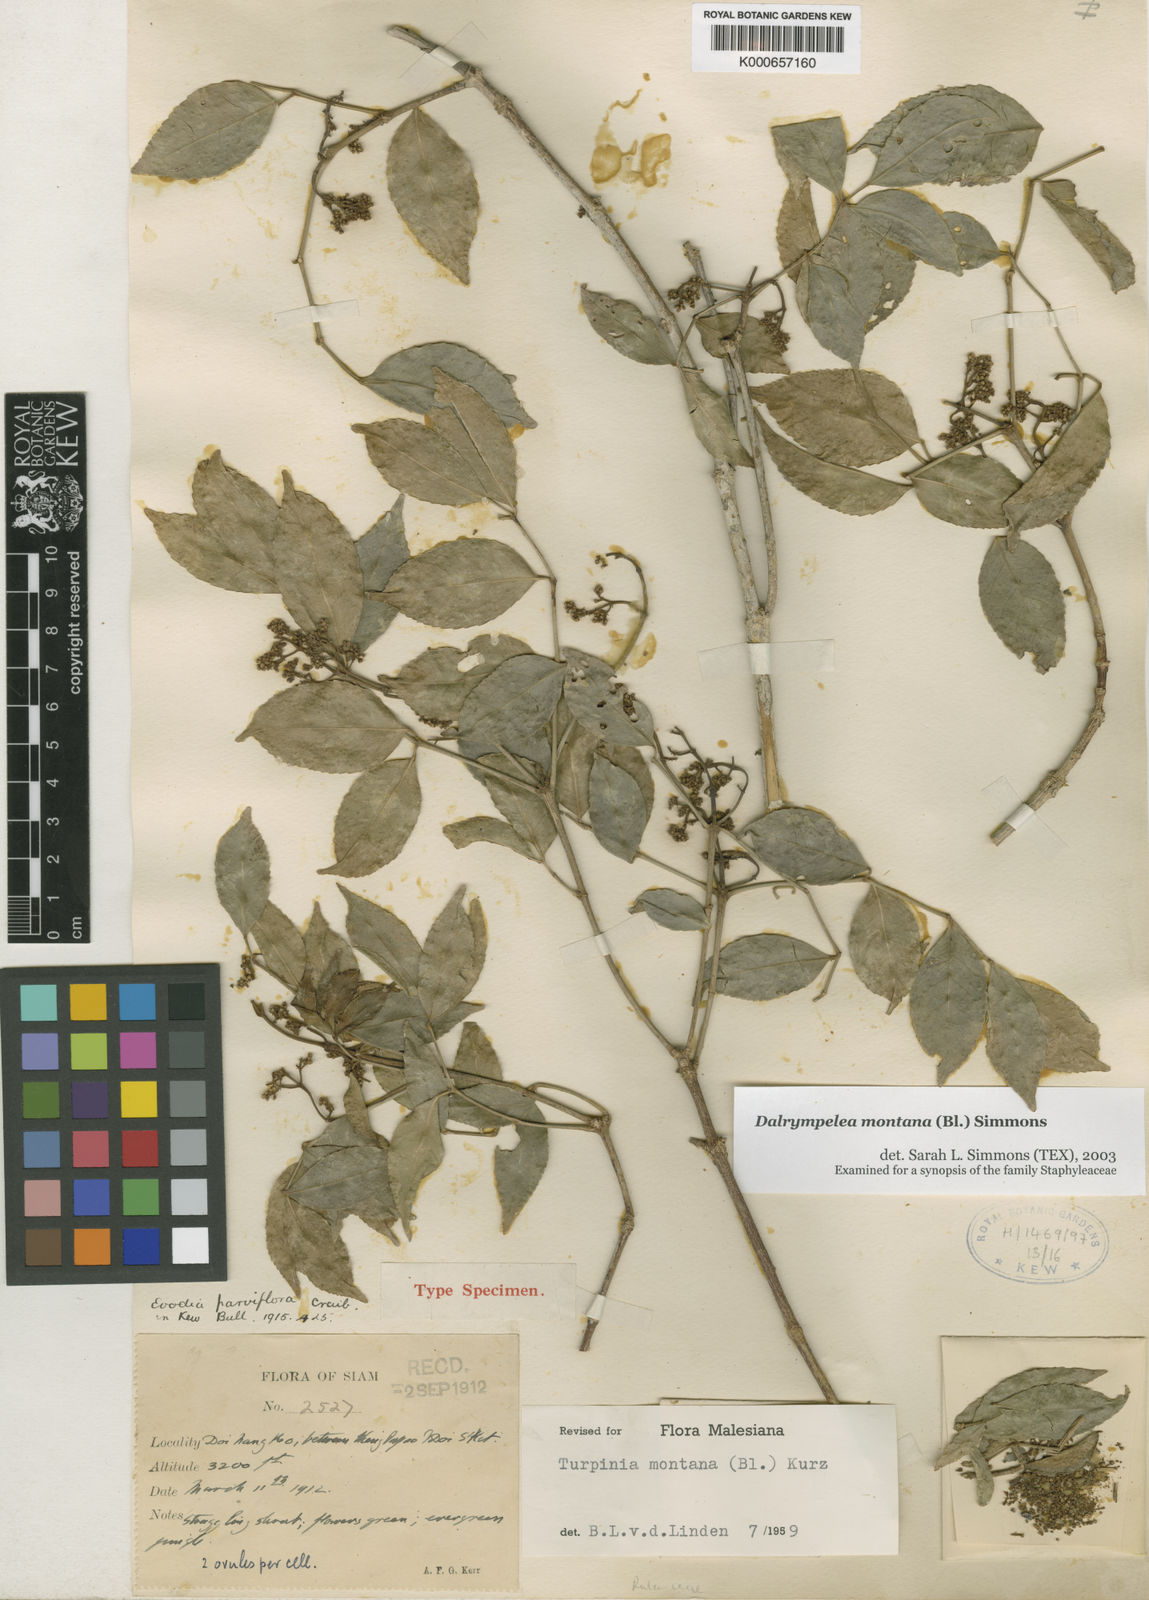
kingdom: Plantae
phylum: Tracheophyta
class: Magnoliopsida
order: Crossosomatales
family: Staphyleaceae
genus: Turpinia
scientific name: Turpinia montana
